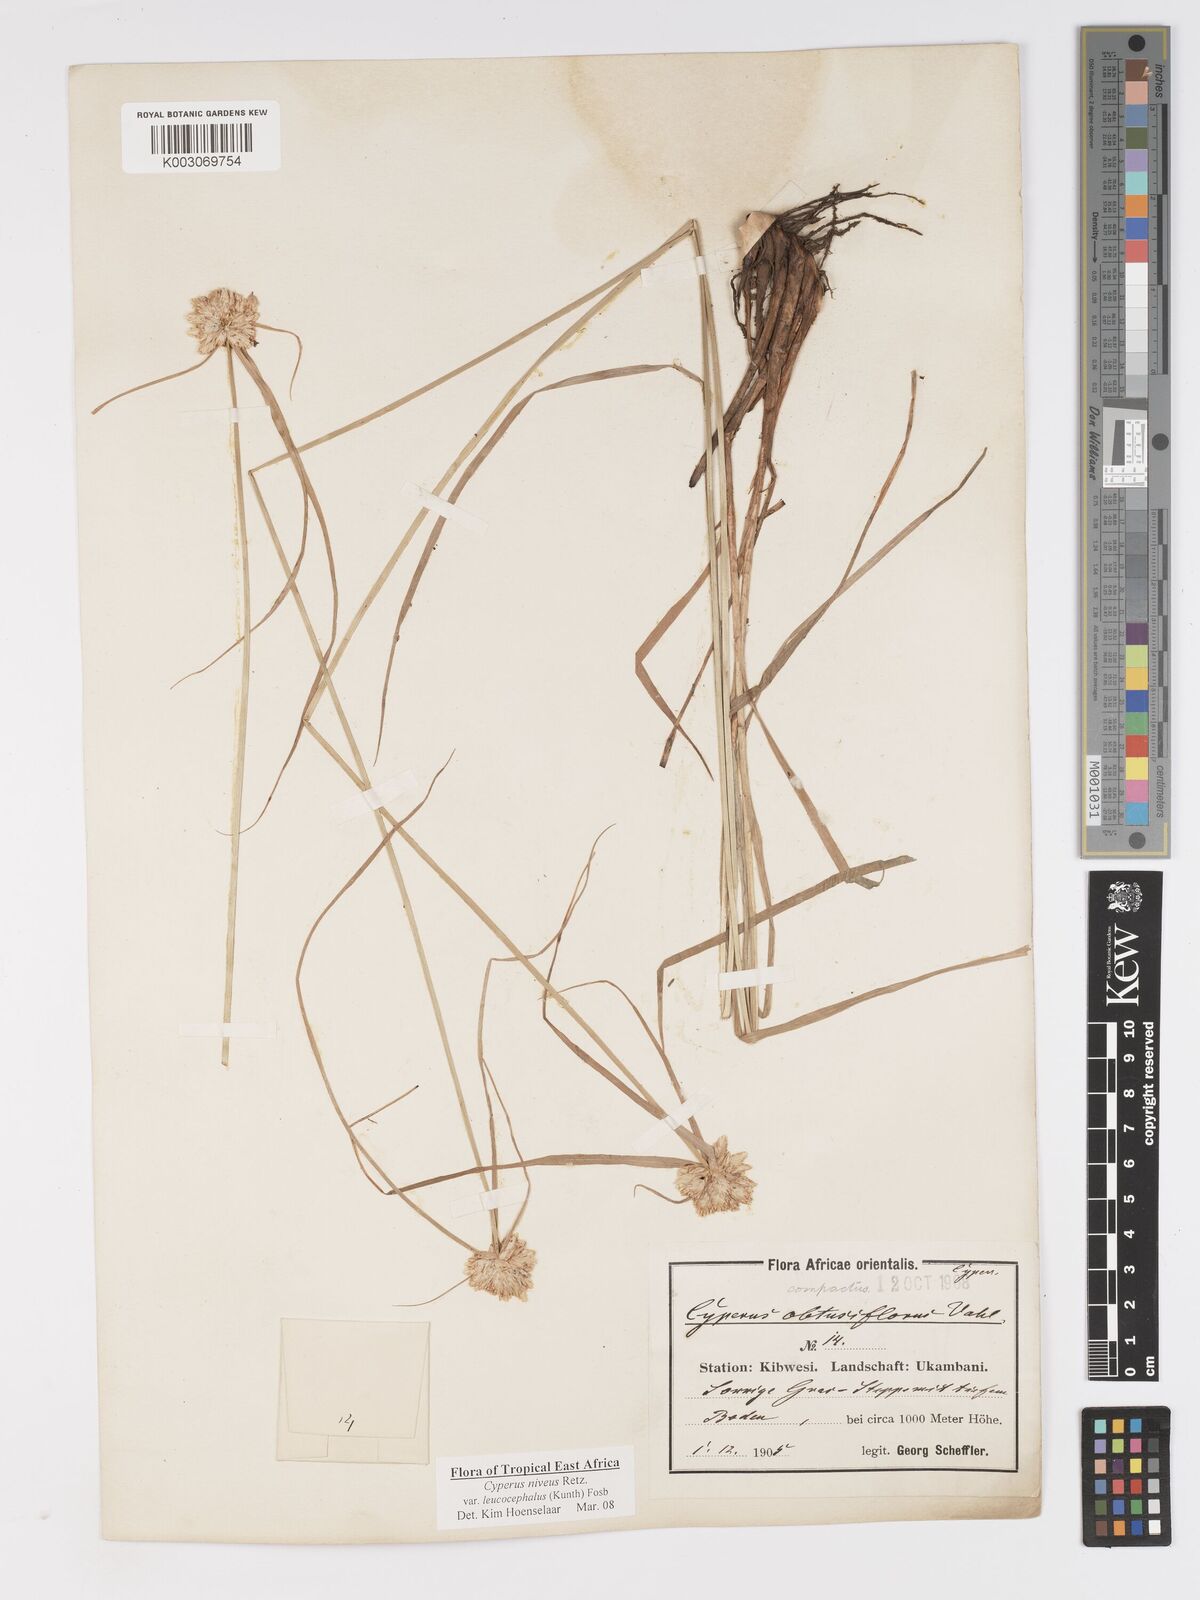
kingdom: Plantae
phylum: Tracheophyta
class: Liliopsida
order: Poales
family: Cyperaceae
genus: Cyperus
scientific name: Cyperus niveus
